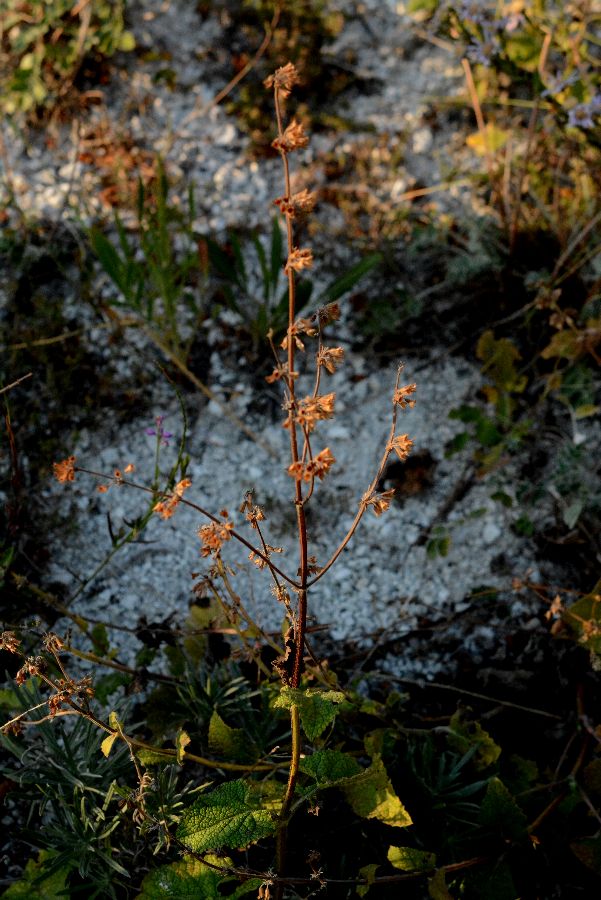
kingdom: Plantae
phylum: Tracheophyta
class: Magnoliopsida
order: Lamiales
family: Lamiaceae
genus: Salvia
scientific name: Salvia verticillata
